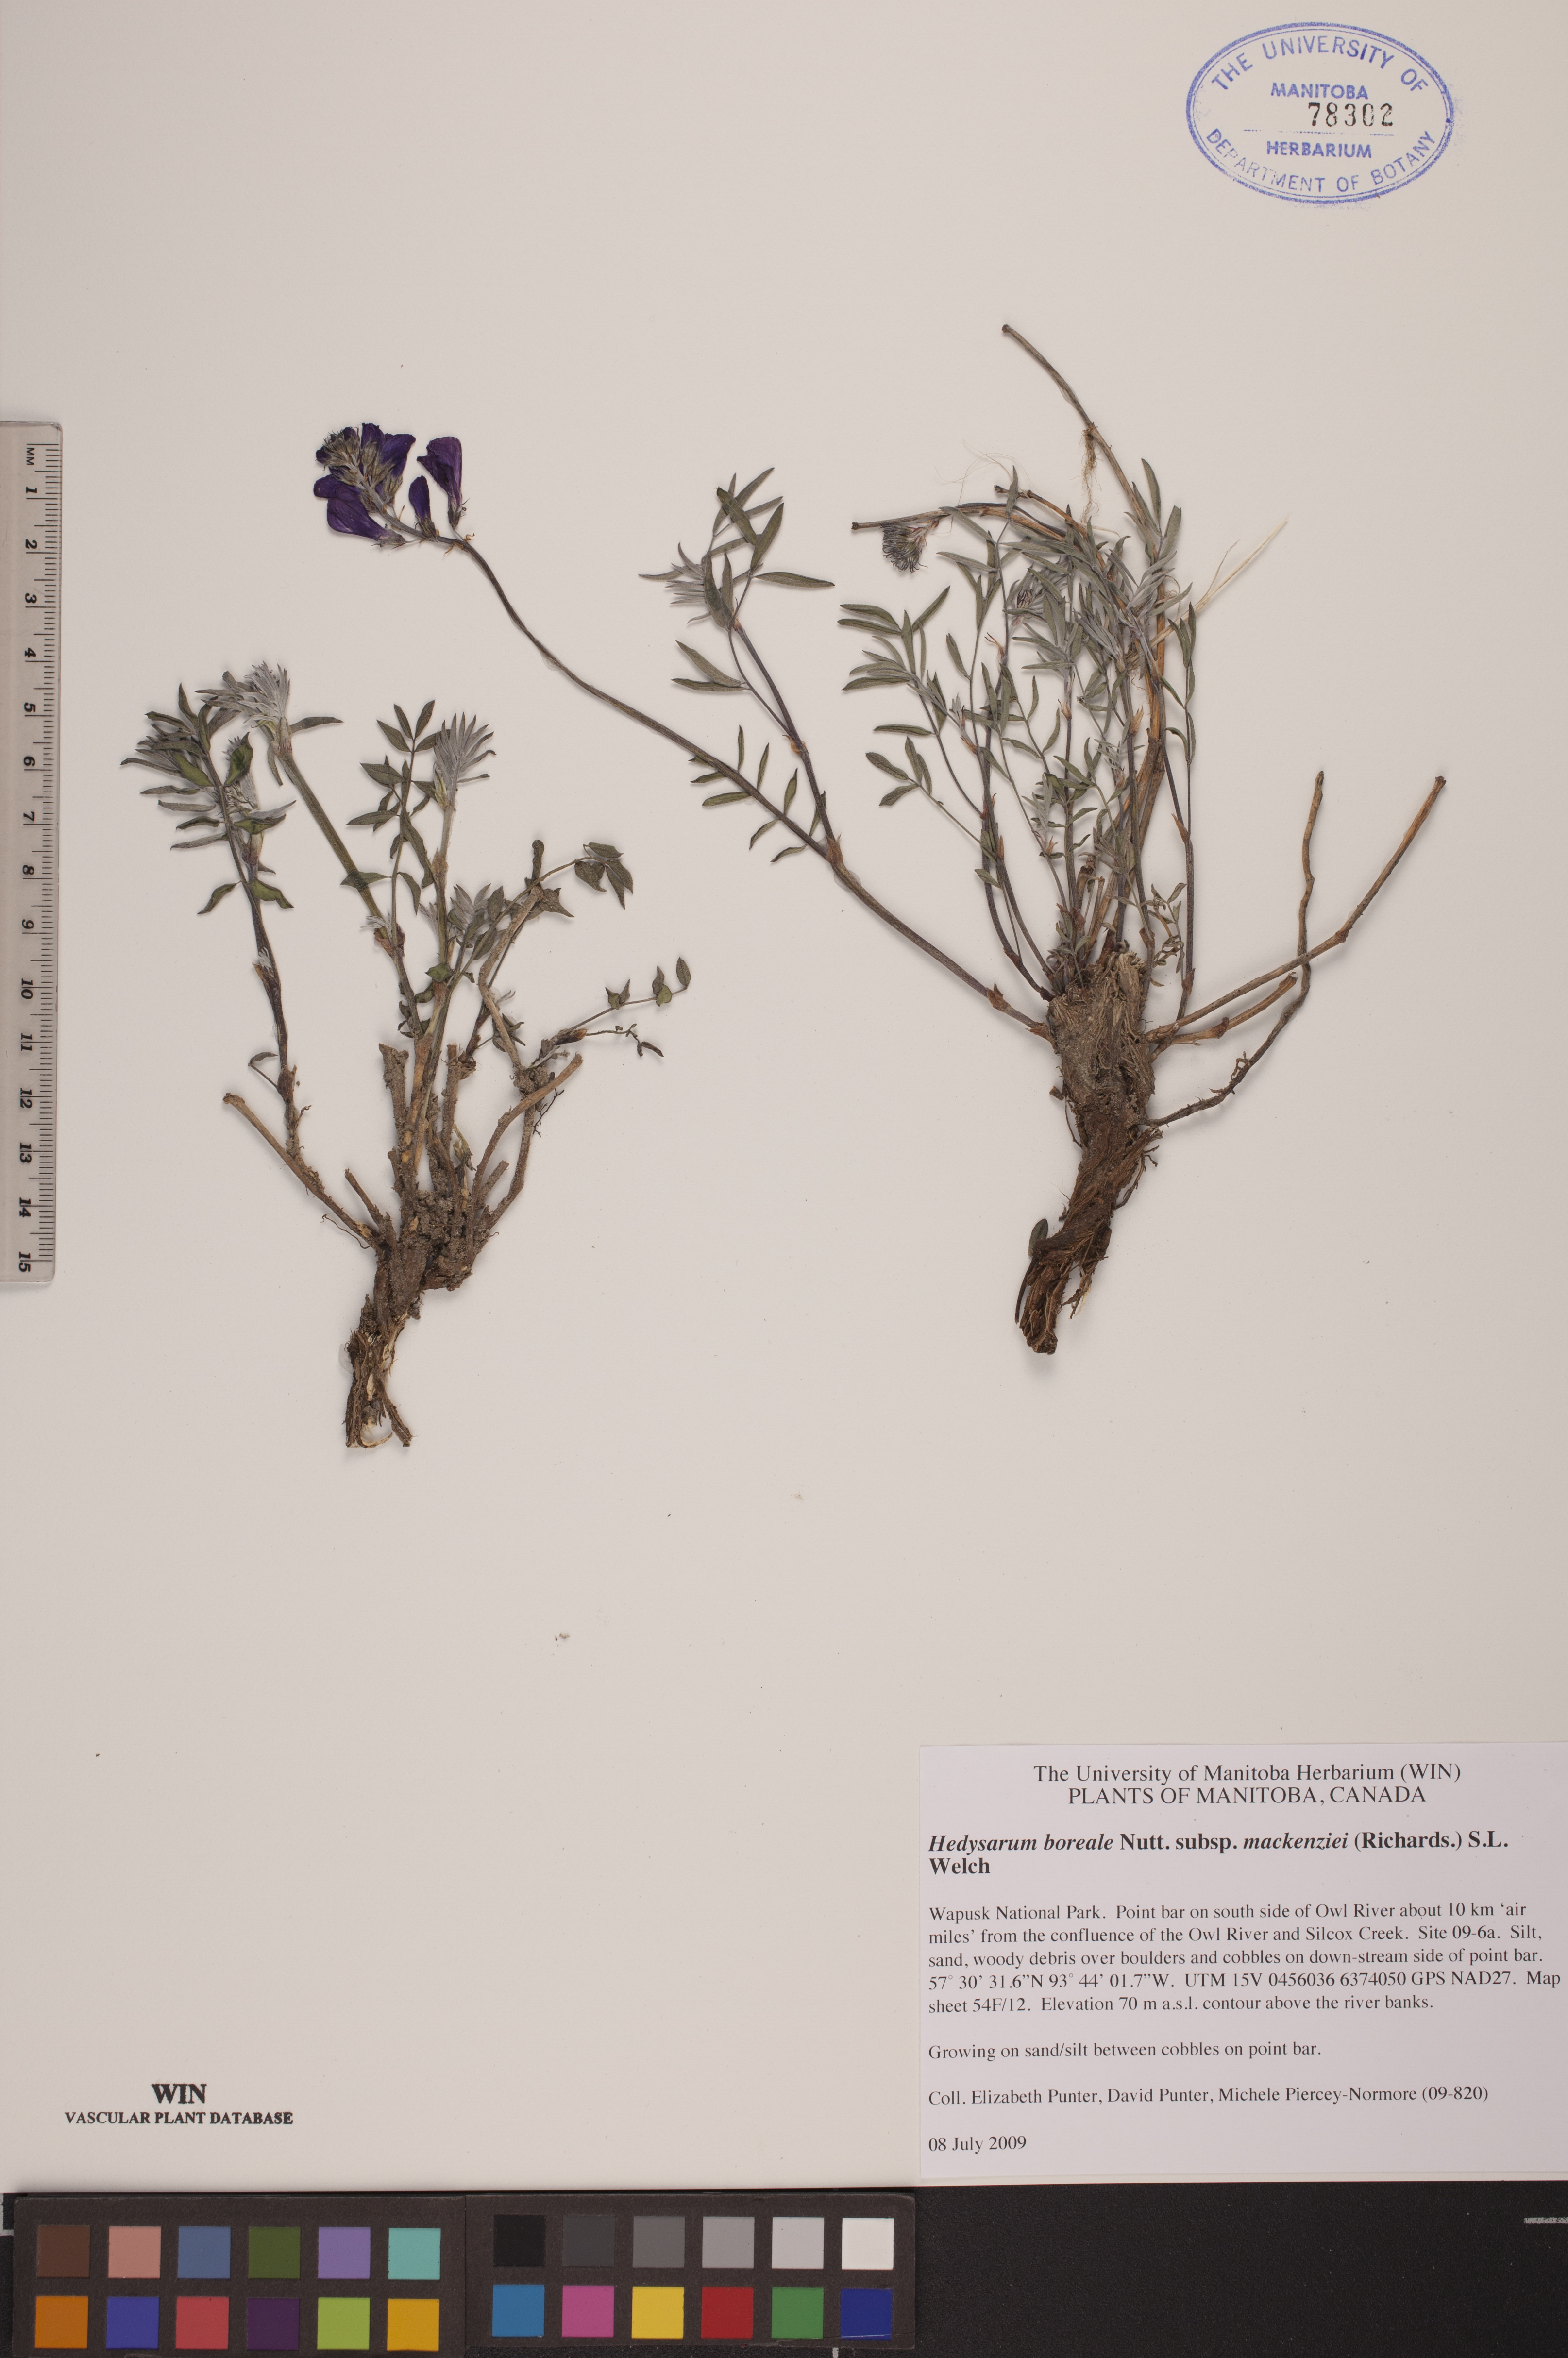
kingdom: Plantae
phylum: Tracheophyta
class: Magnoliopsida
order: Fabales
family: Fabaceae
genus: Hedysarum
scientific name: Hedysarum boreale
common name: Northern sweet-vetch
